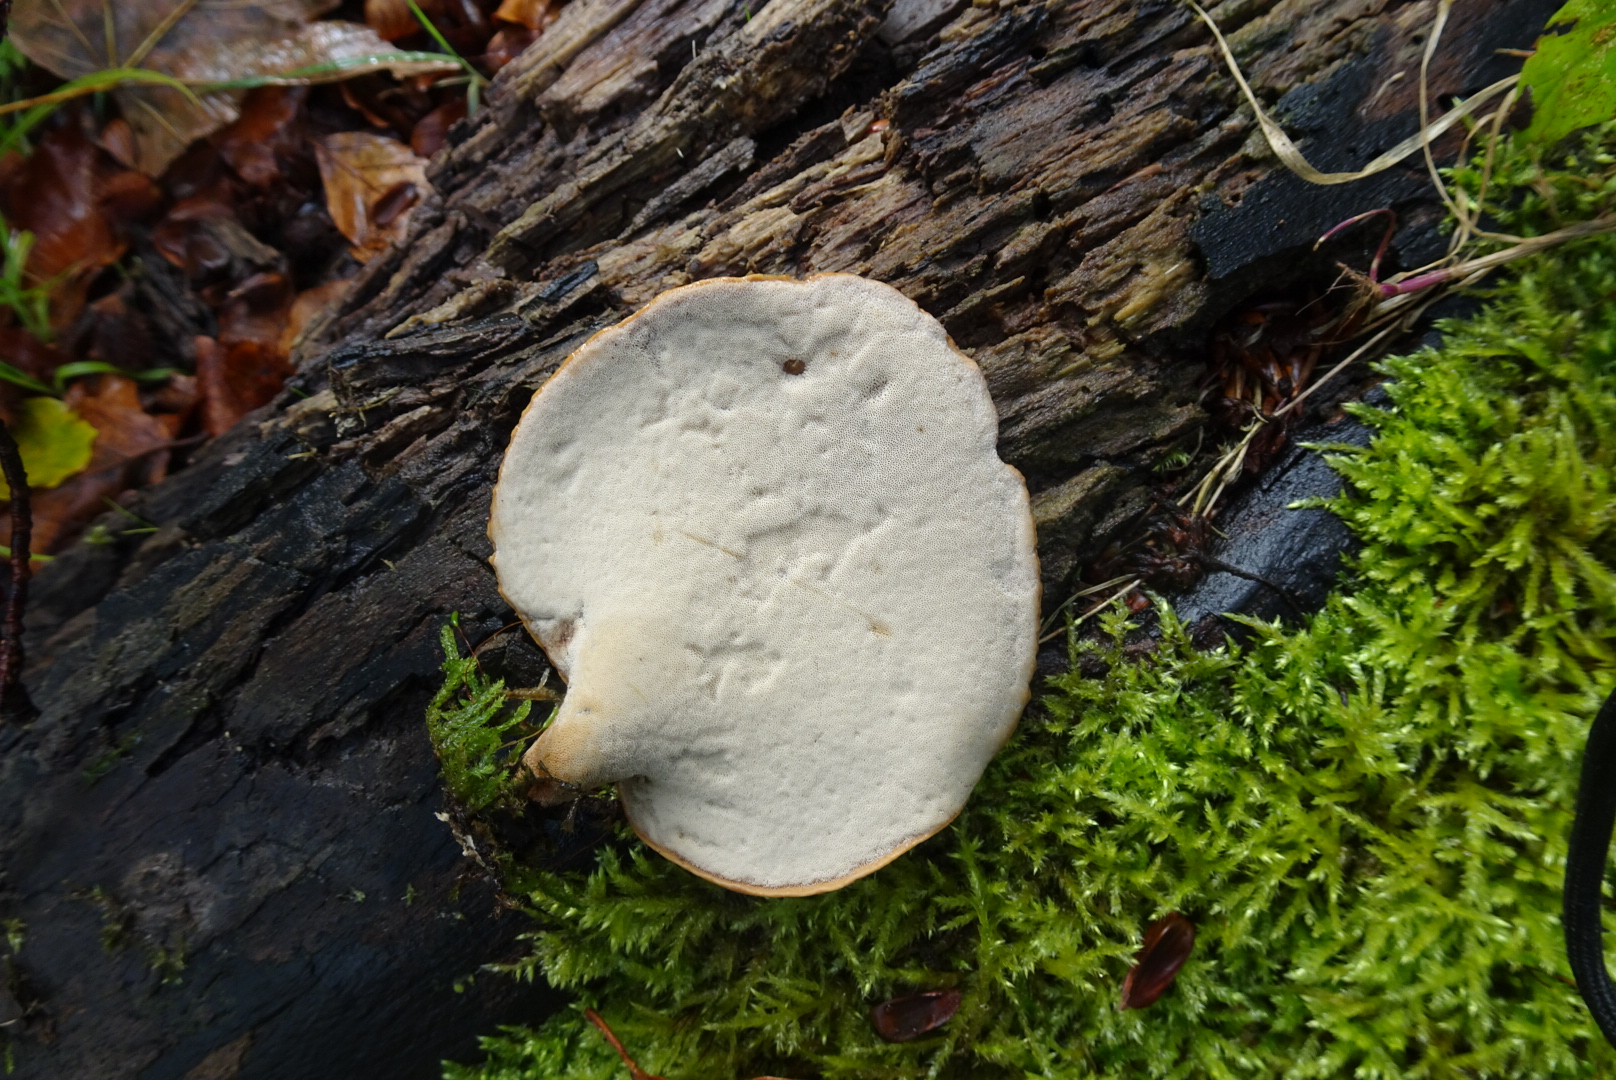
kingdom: Fungi
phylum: Basidiomycota
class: Agaricomycetes
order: Polyporales
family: Polyporaceae
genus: Cerioporus
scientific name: Cerioporus varius
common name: foranderlig stilkporesvamp
